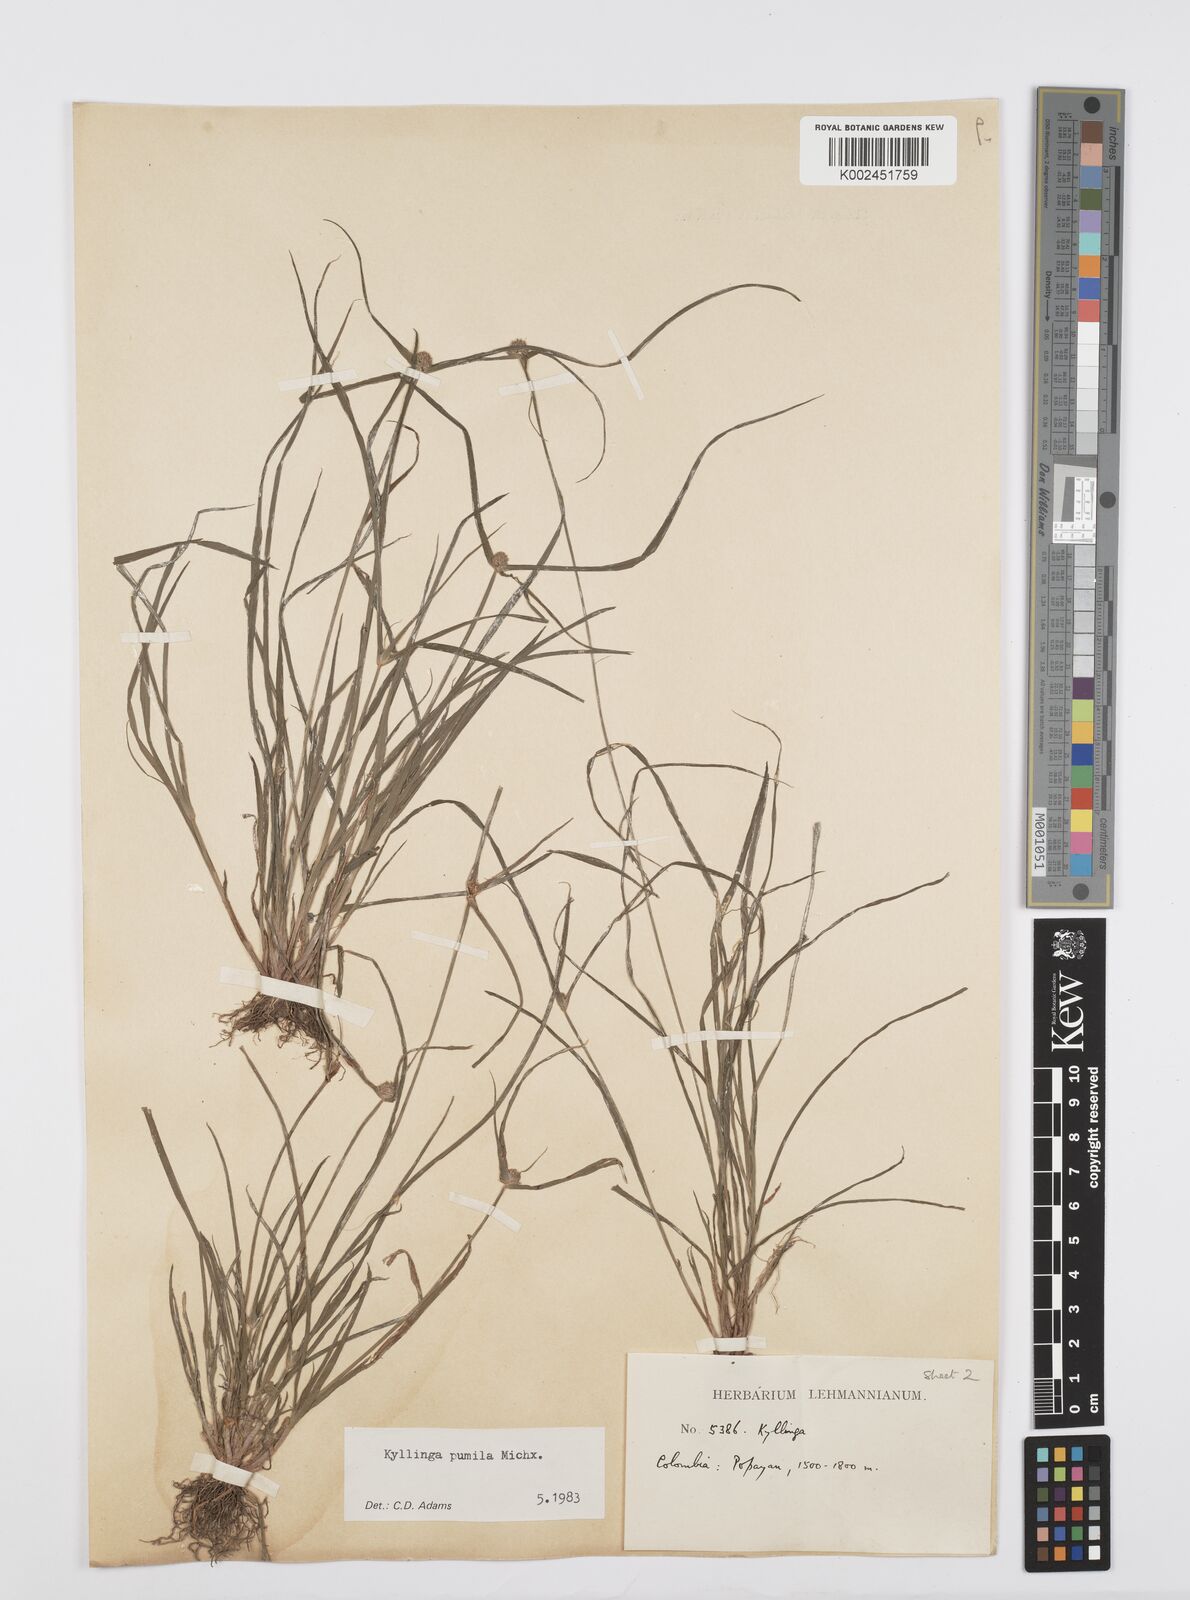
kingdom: Plantae
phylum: Tracheophyta
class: Liliopsida
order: Poales
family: Cyperaceae
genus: Cyperus
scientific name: Cyperus
